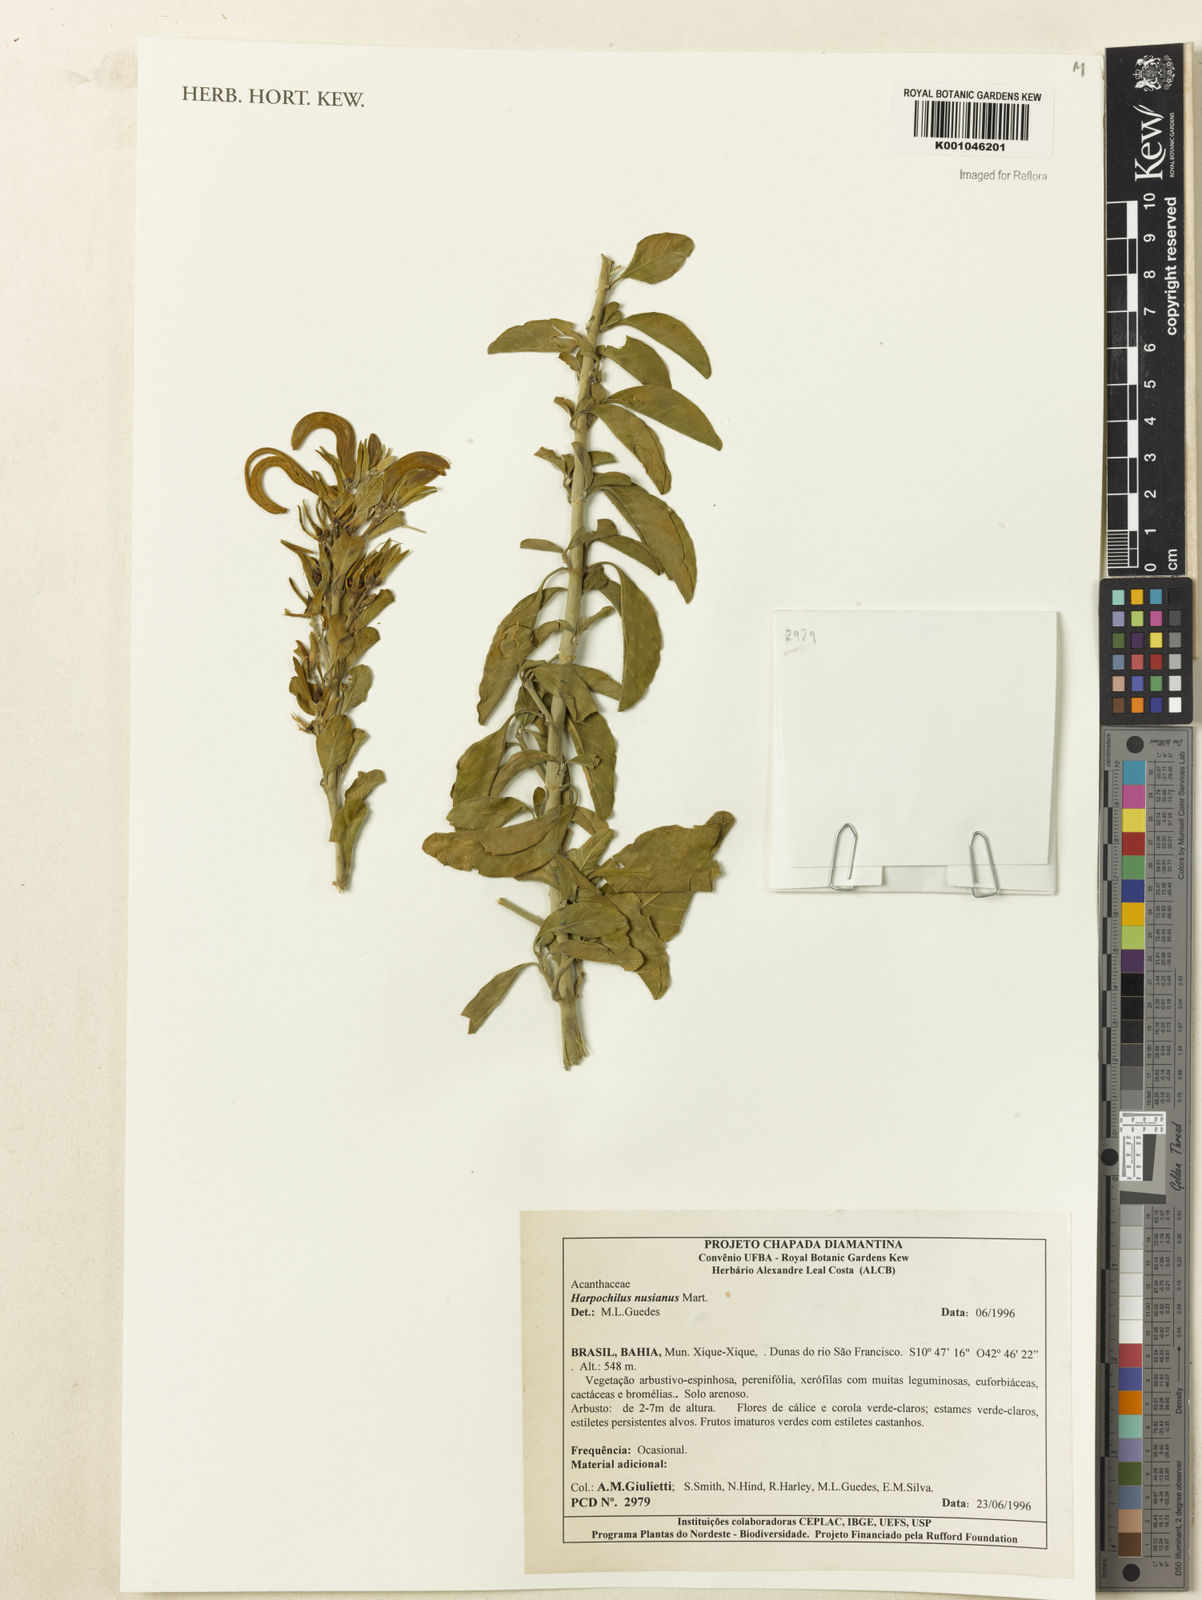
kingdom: Plantae
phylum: Tracheophyta
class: Magnoliopsida
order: Lamiales
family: Acanthaceae
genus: Harpochilus
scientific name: Harpochilus neesianus
